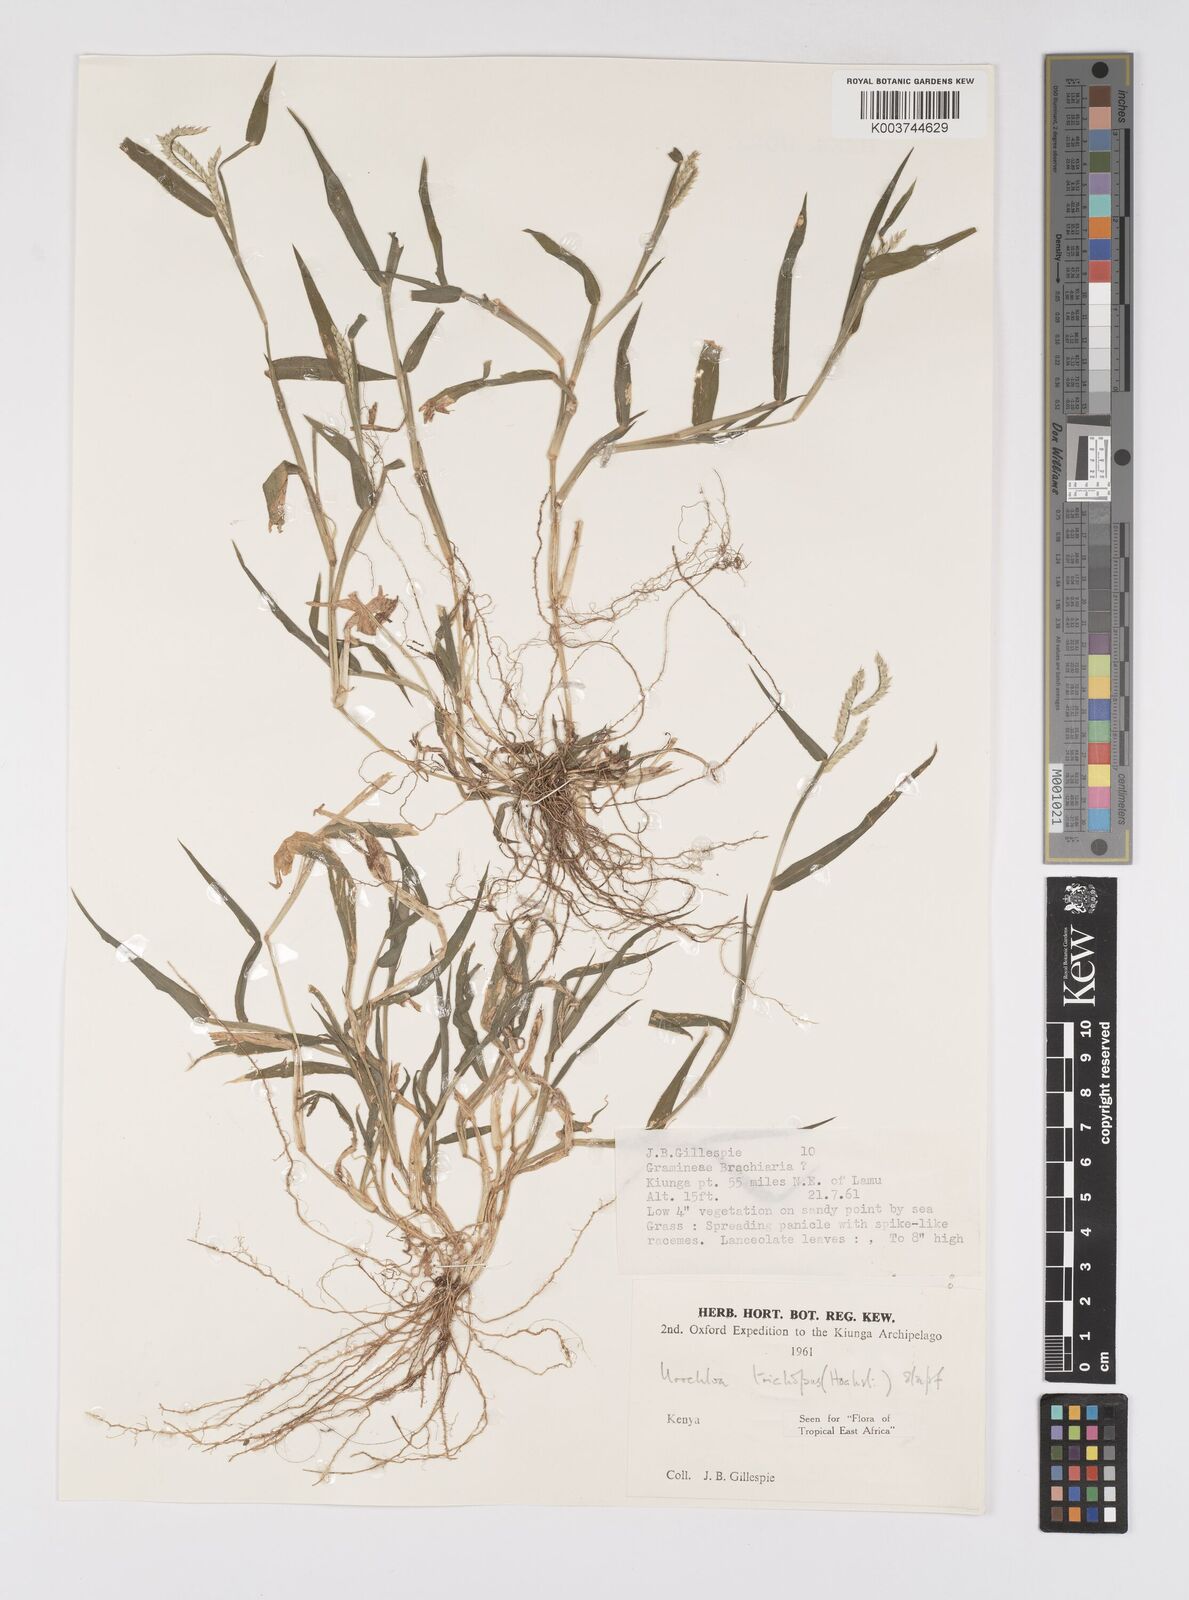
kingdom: Plantae
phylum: Tracheophyta
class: Liliopsida
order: Poales
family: Poaceae
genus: Urochloa
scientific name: Urochloa trichopus
